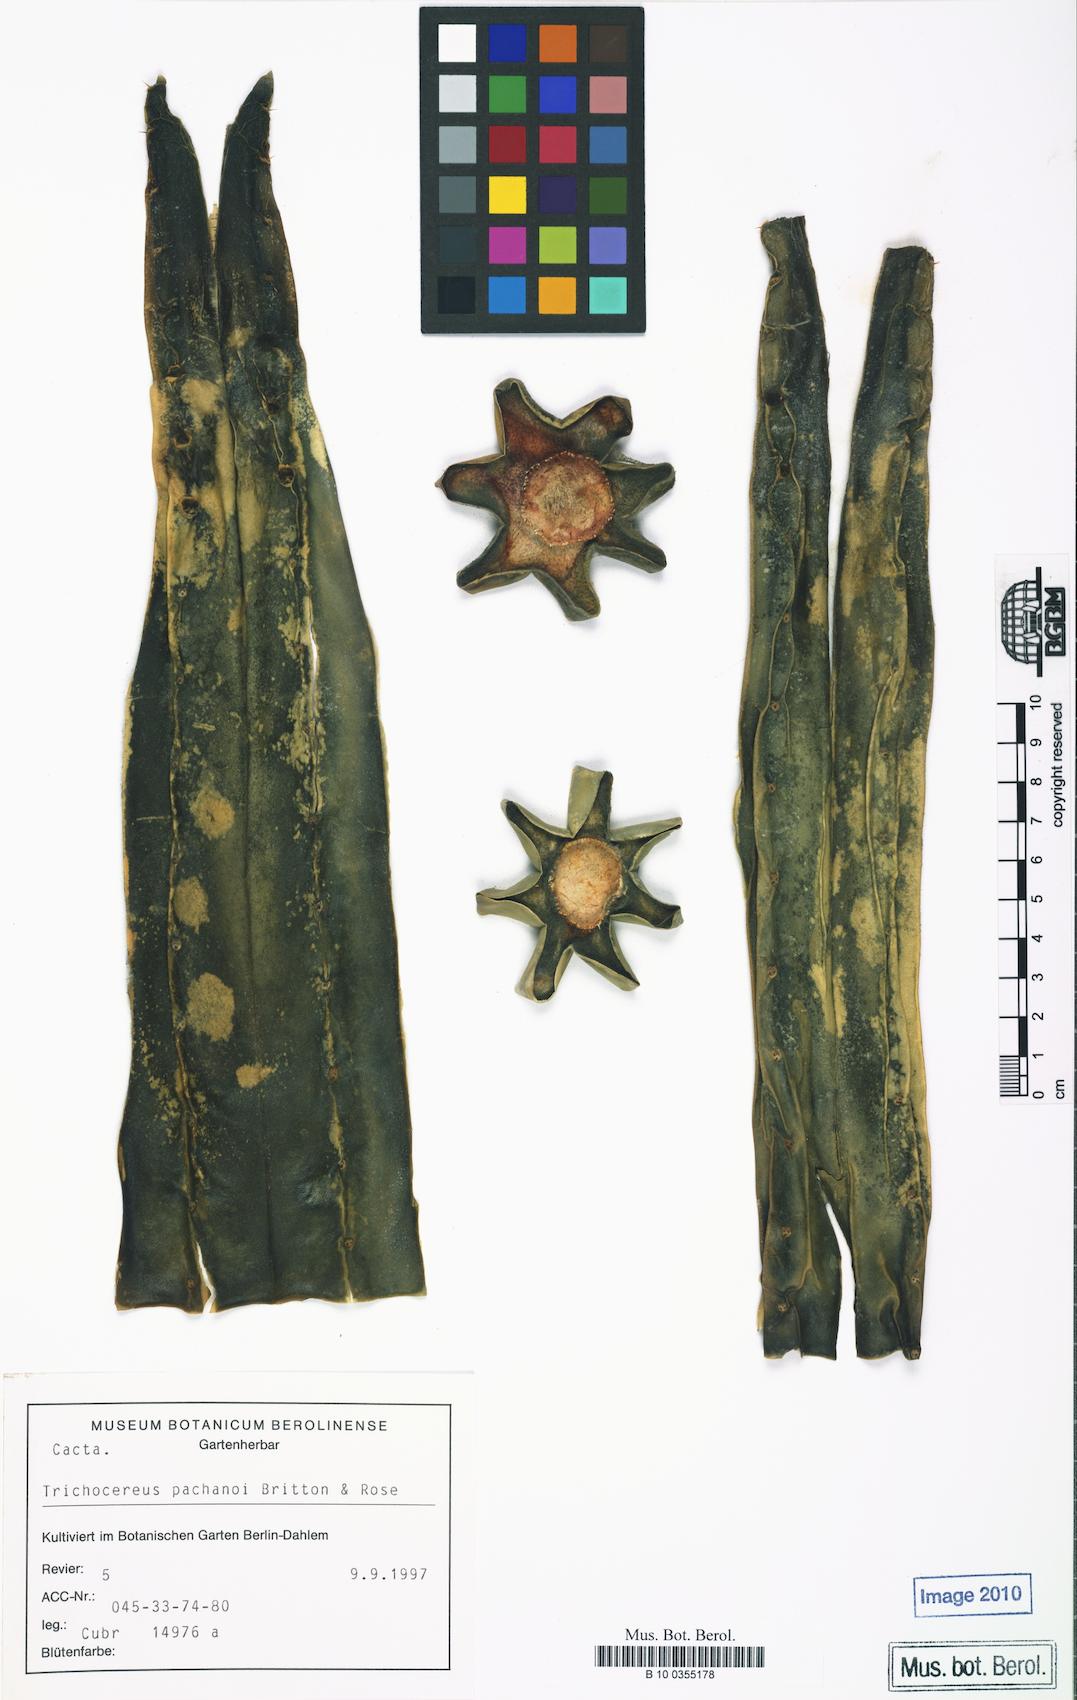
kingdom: Plantae
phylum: Tracheophyta
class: Magnoliopsida
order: Caryophyllales
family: Cactaceae
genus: Trichocereus
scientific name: Trichocereus macrogonus
